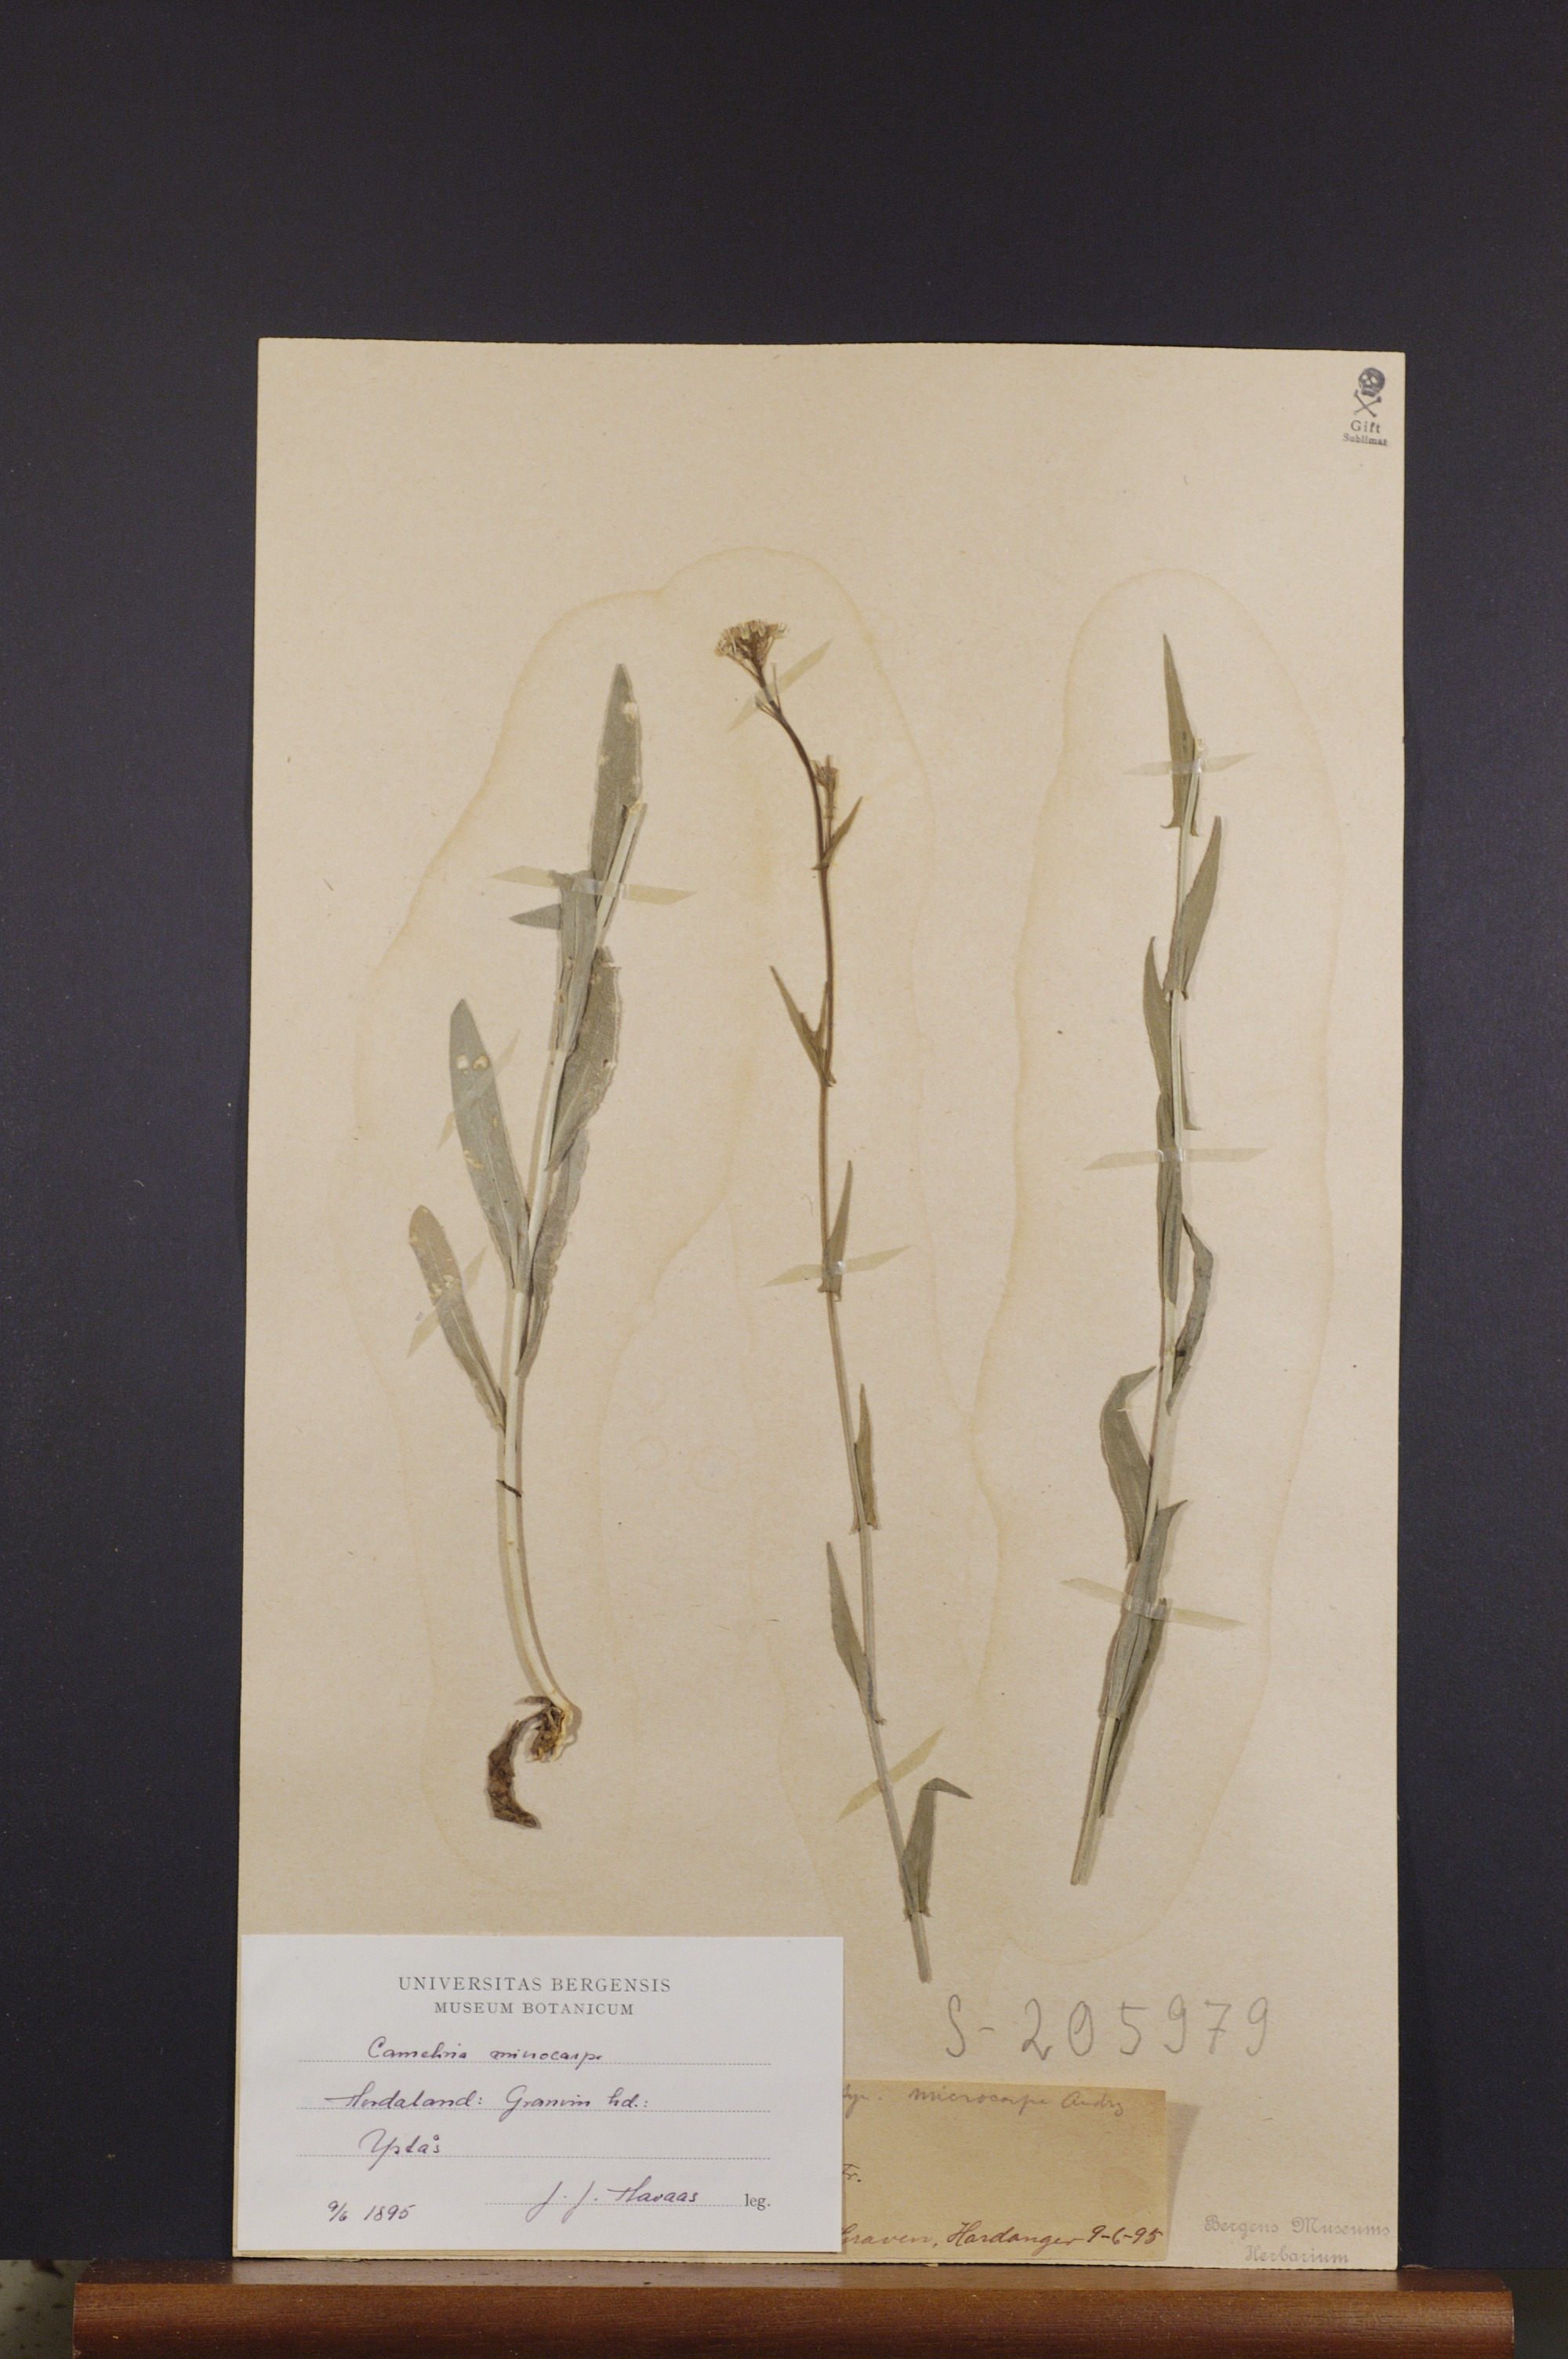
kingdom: Plantae
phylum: Tracheophyta
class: Magnoliopsida
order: Brassicales
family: Brassicaceae
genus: Camelina
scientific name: Camelina sativa
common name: Gold-of-pleasure
